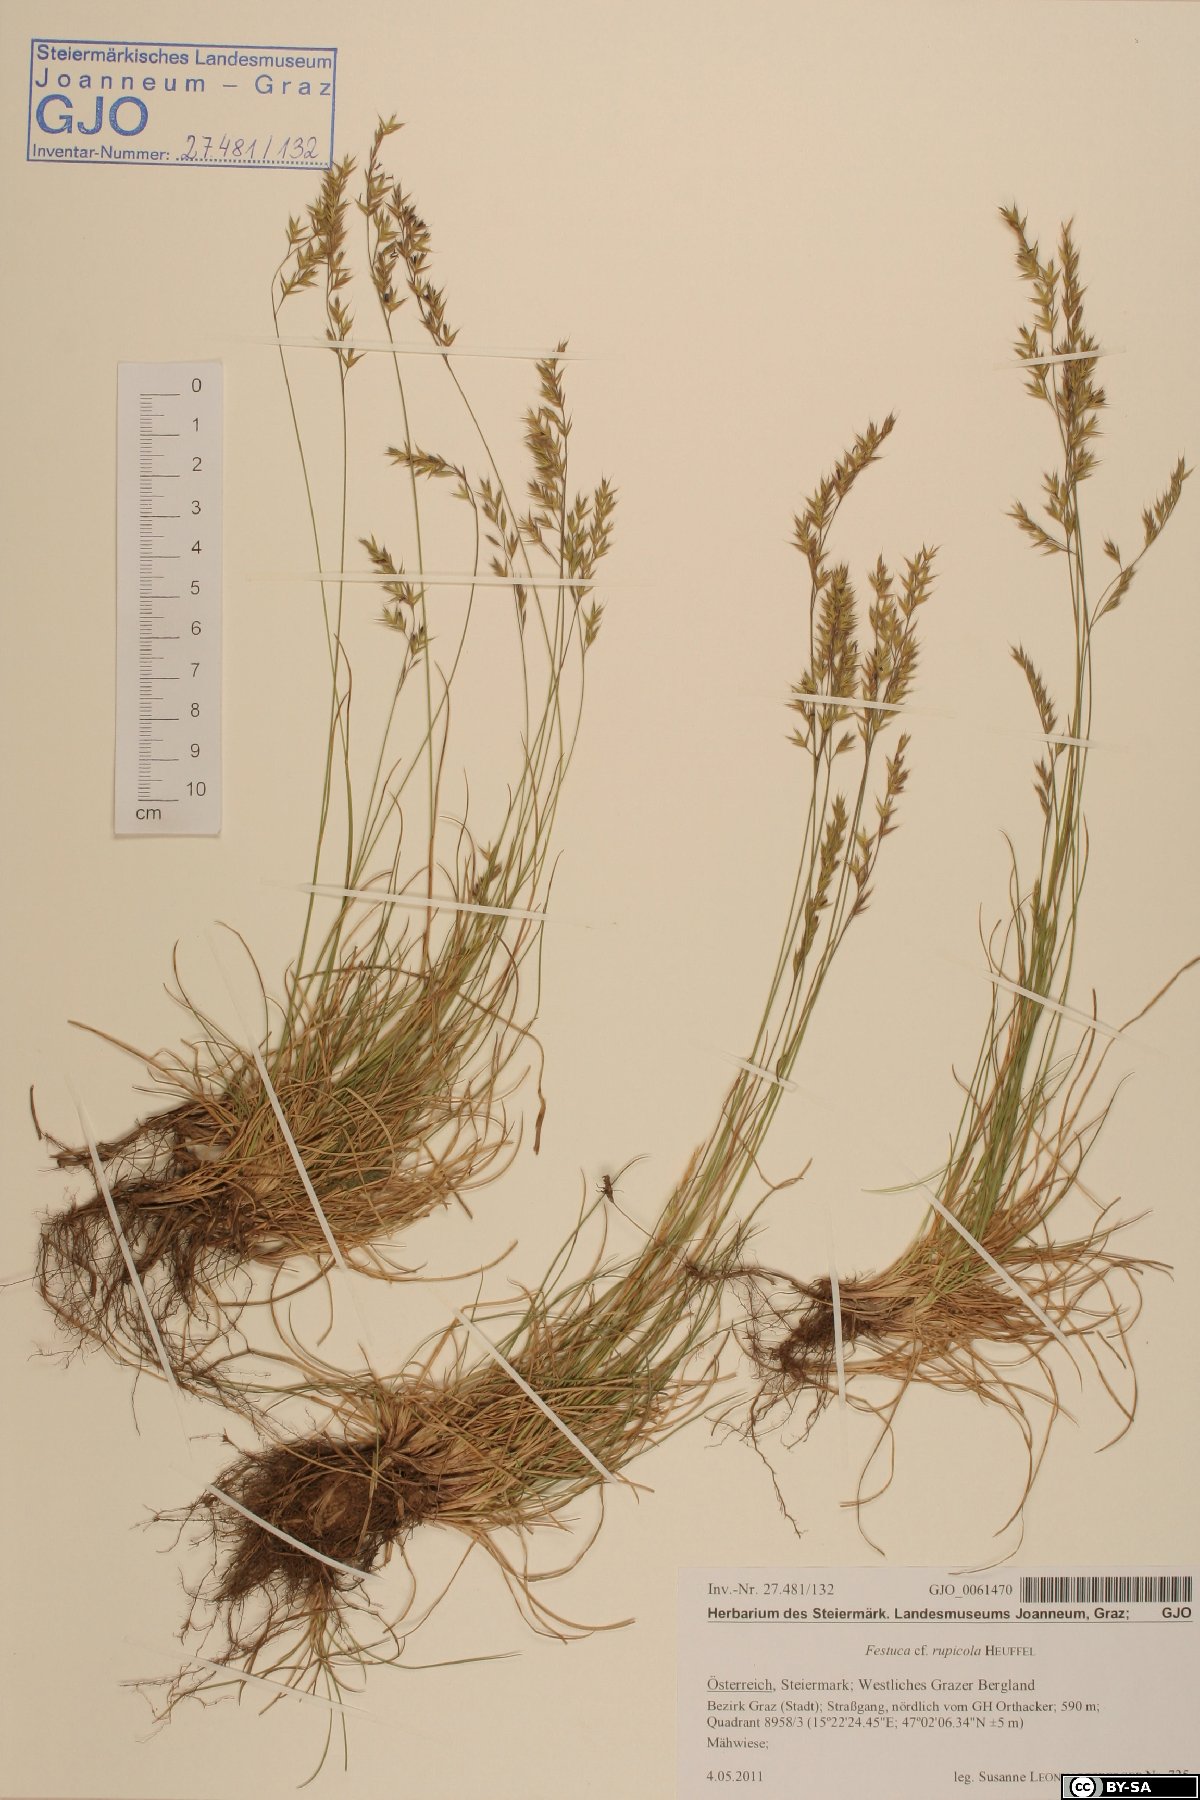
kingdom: Plantae
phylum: Tracheophyta
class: Liliopsida
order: Poales
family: Poaceae
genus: Festuca
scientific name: Festuca rupicola
